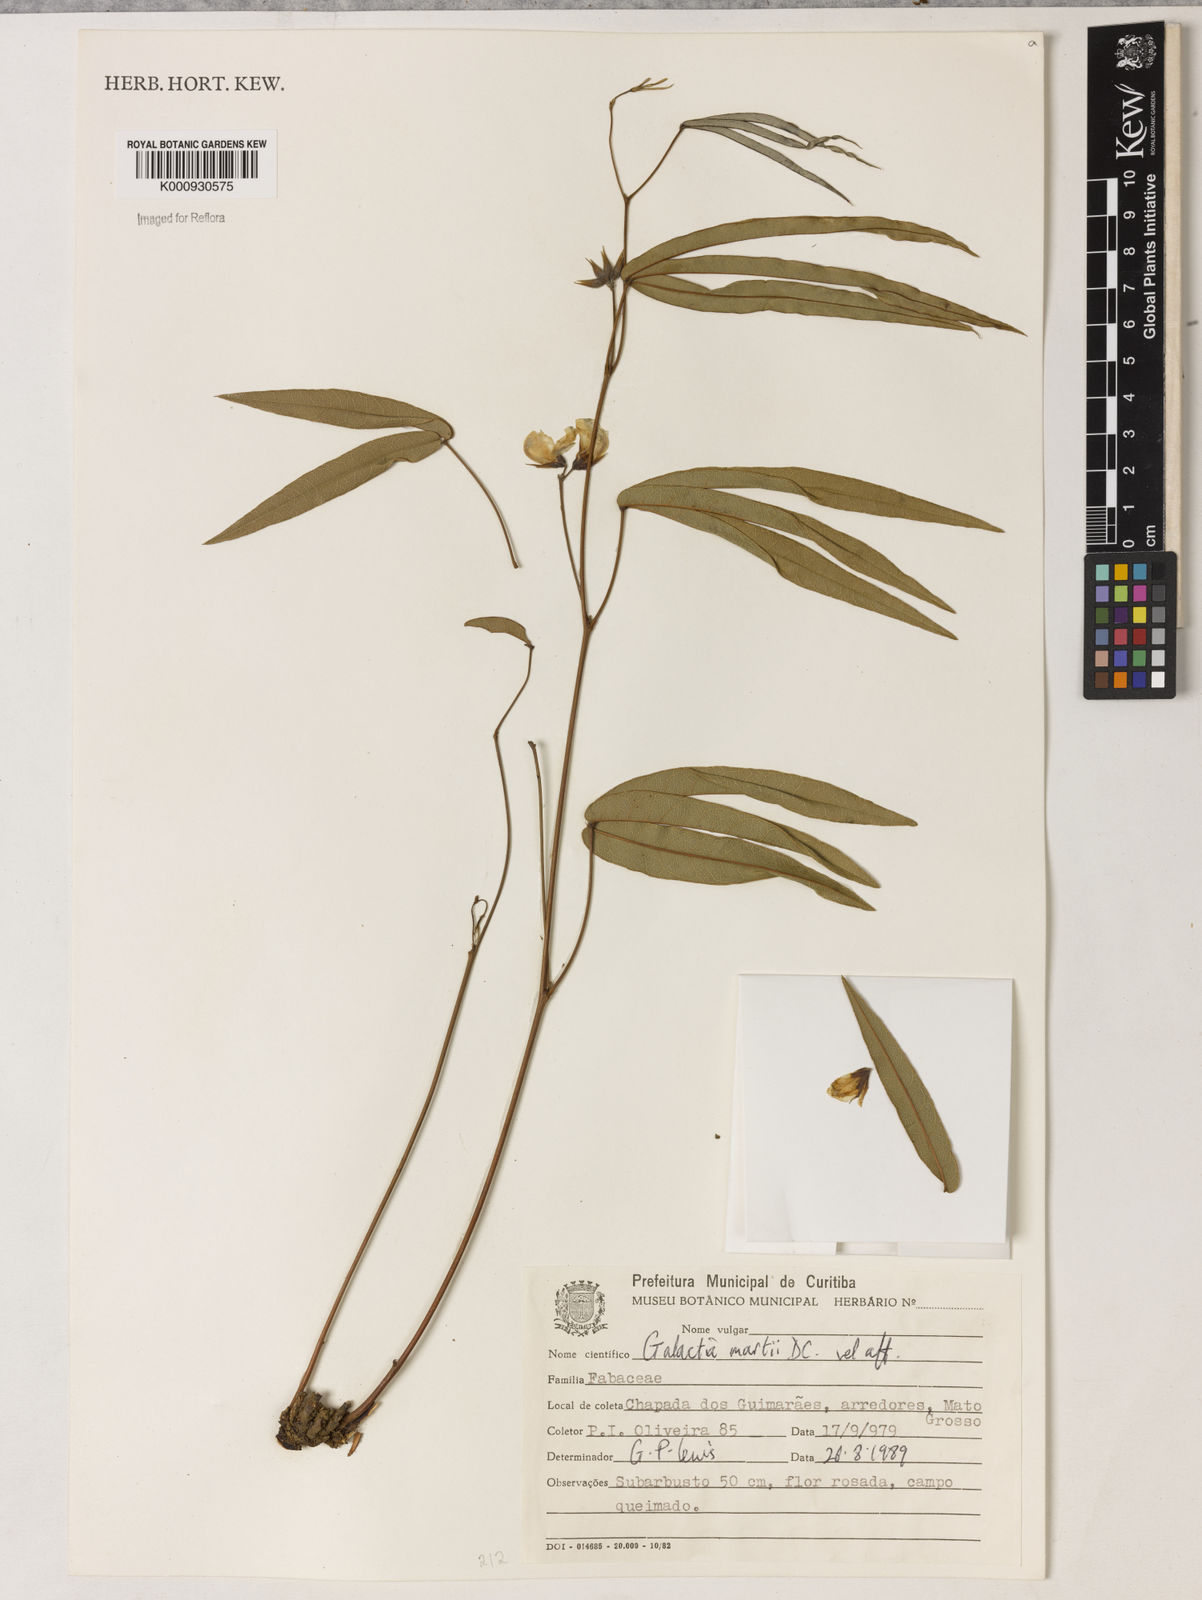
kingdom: Plantae
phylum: Tracheophyta
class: Magnoliopsida
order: Fabales
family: Fabaceae
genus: Betencourtia
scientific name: Betencourtia martii
